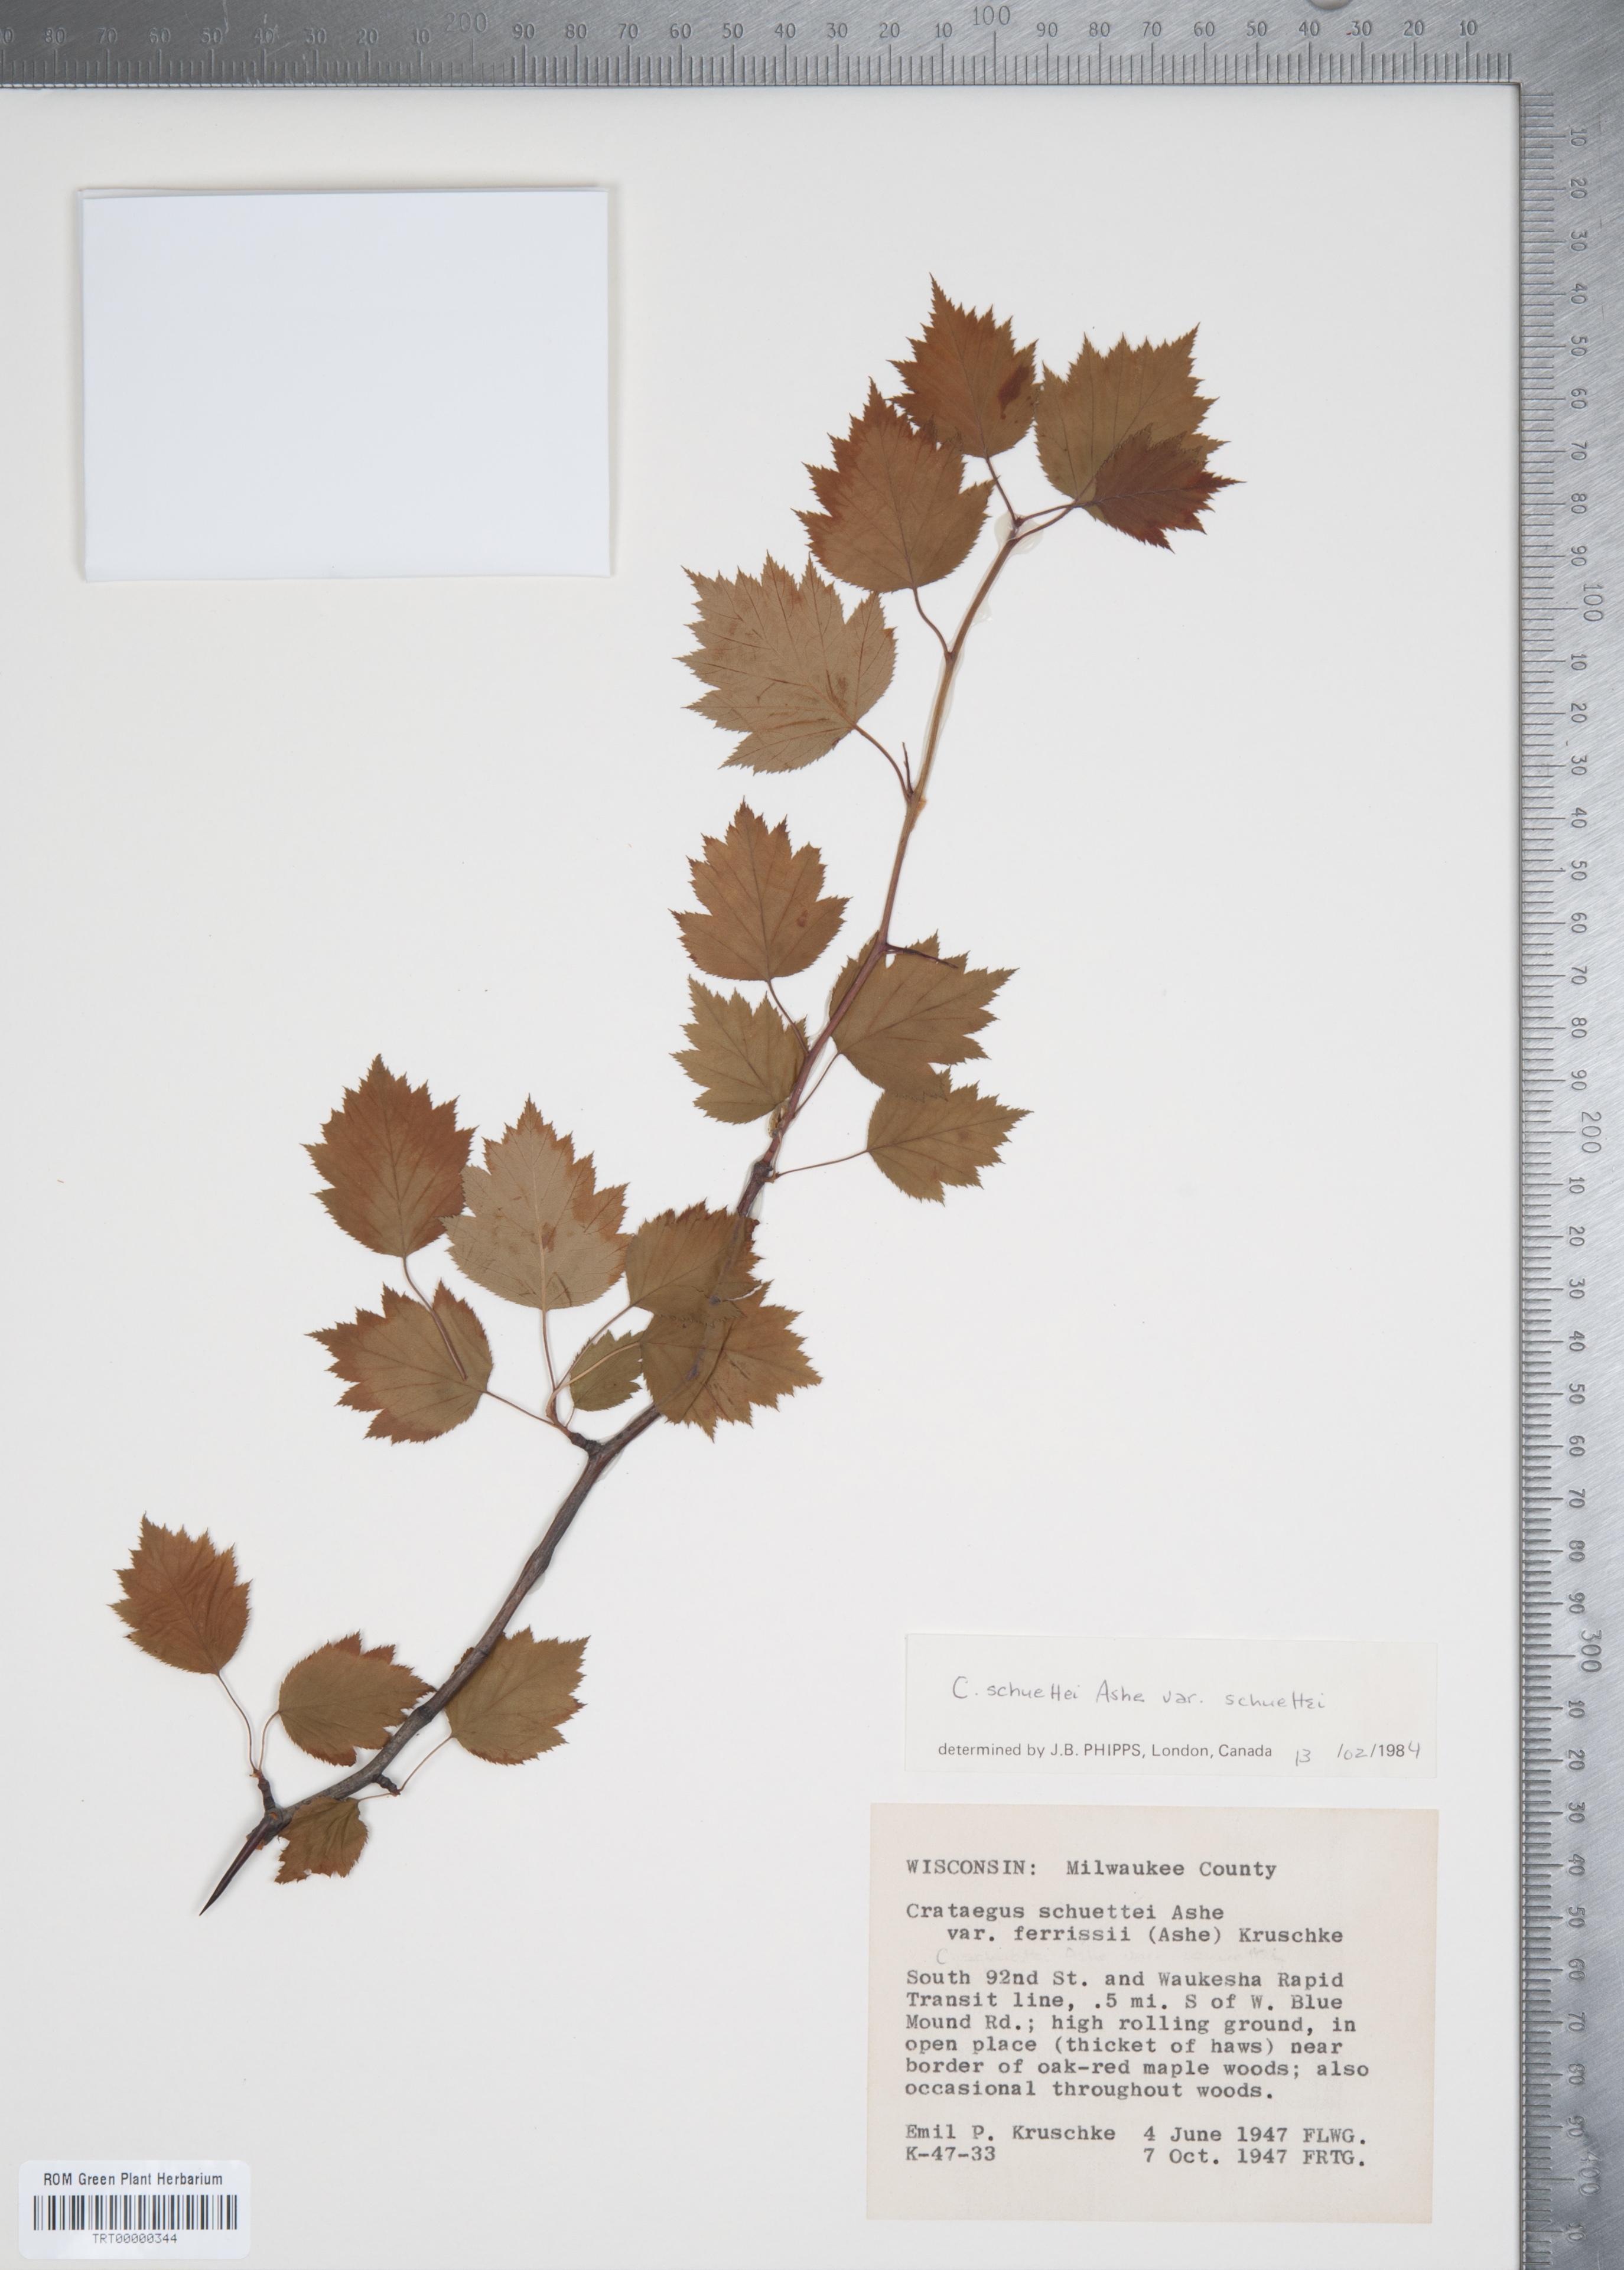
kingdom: Plantae
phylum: Tracheophyta
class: Magnoliopsida
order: Rosales
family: Rosaceae
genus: Crataegus
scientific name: Crataegus schuettei
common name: Schuette's hawthorn
